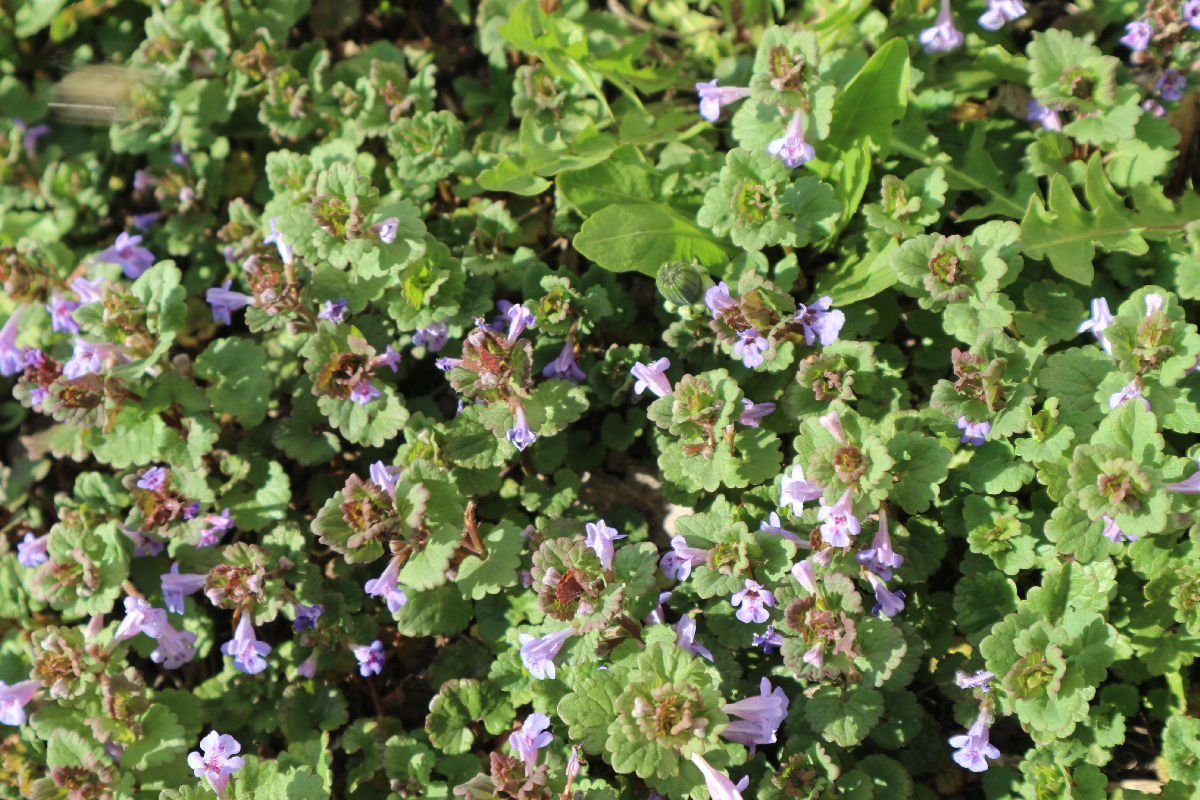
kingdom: Plantae
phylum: Tracheophyta
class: Magnoliopsida
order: Lamiales
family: Lamiaceae
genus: Glechoma
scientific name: Glechoma hederacea
